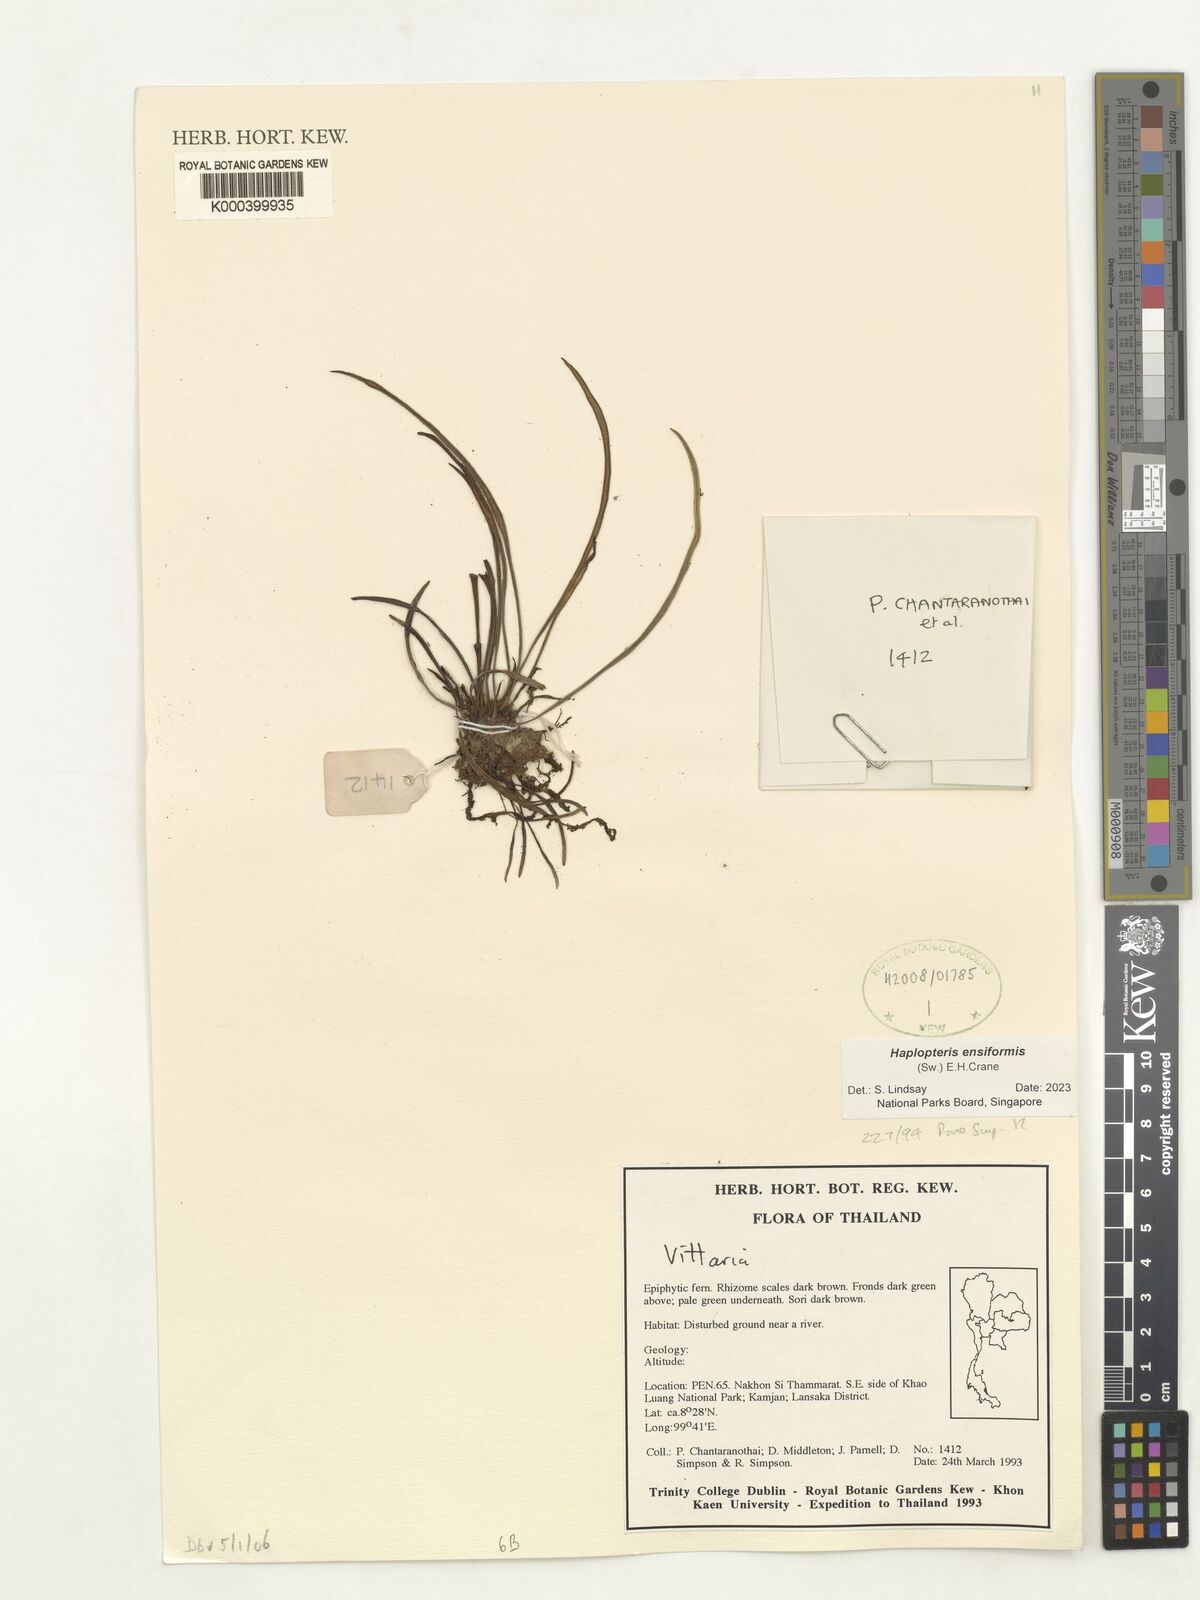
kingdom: Plantae
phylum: Tracheophyta
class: Polypodiopsida
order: Polypodiales
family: Pteridaceae
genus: Haplopteris
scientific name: Haplopteris ensiformis
